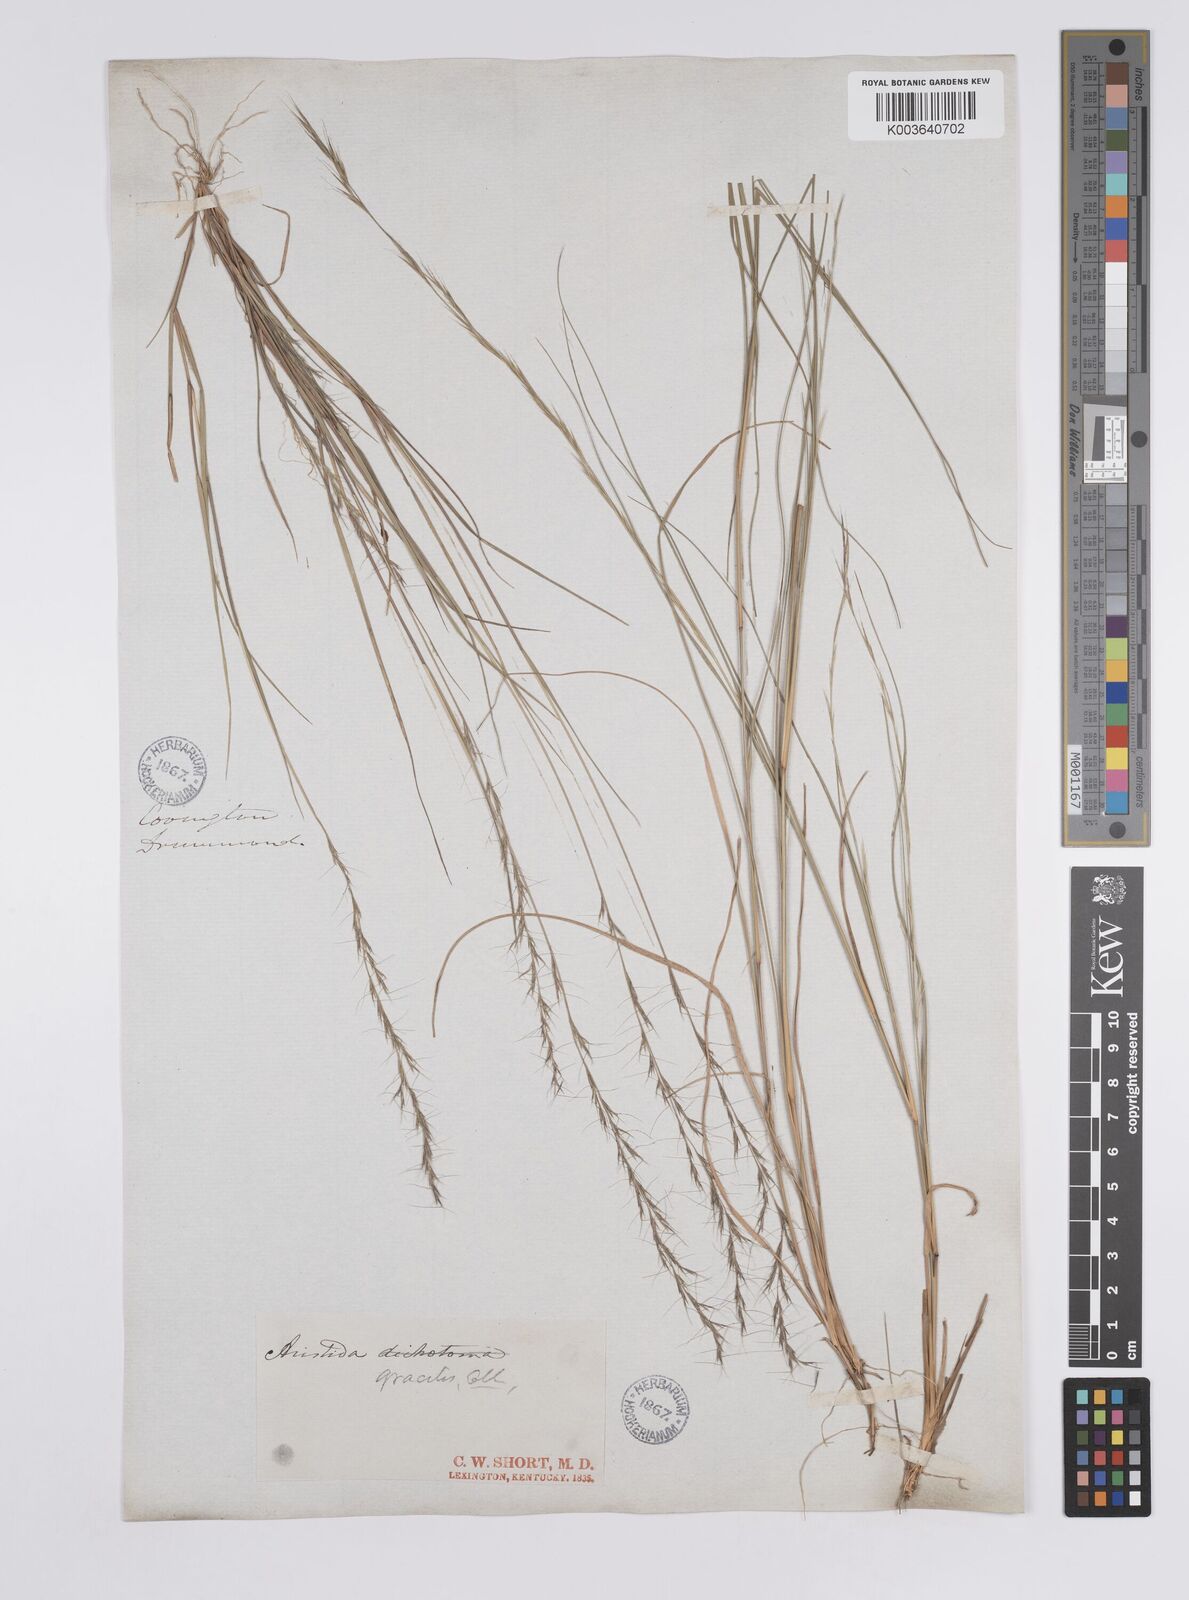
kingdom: Plantae
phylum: Tracheophyta
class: Liliopsida
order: Poales
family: Poaceae
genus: Aristida
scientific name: Aristida longespica
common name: Long-spiked triple-awned grass
